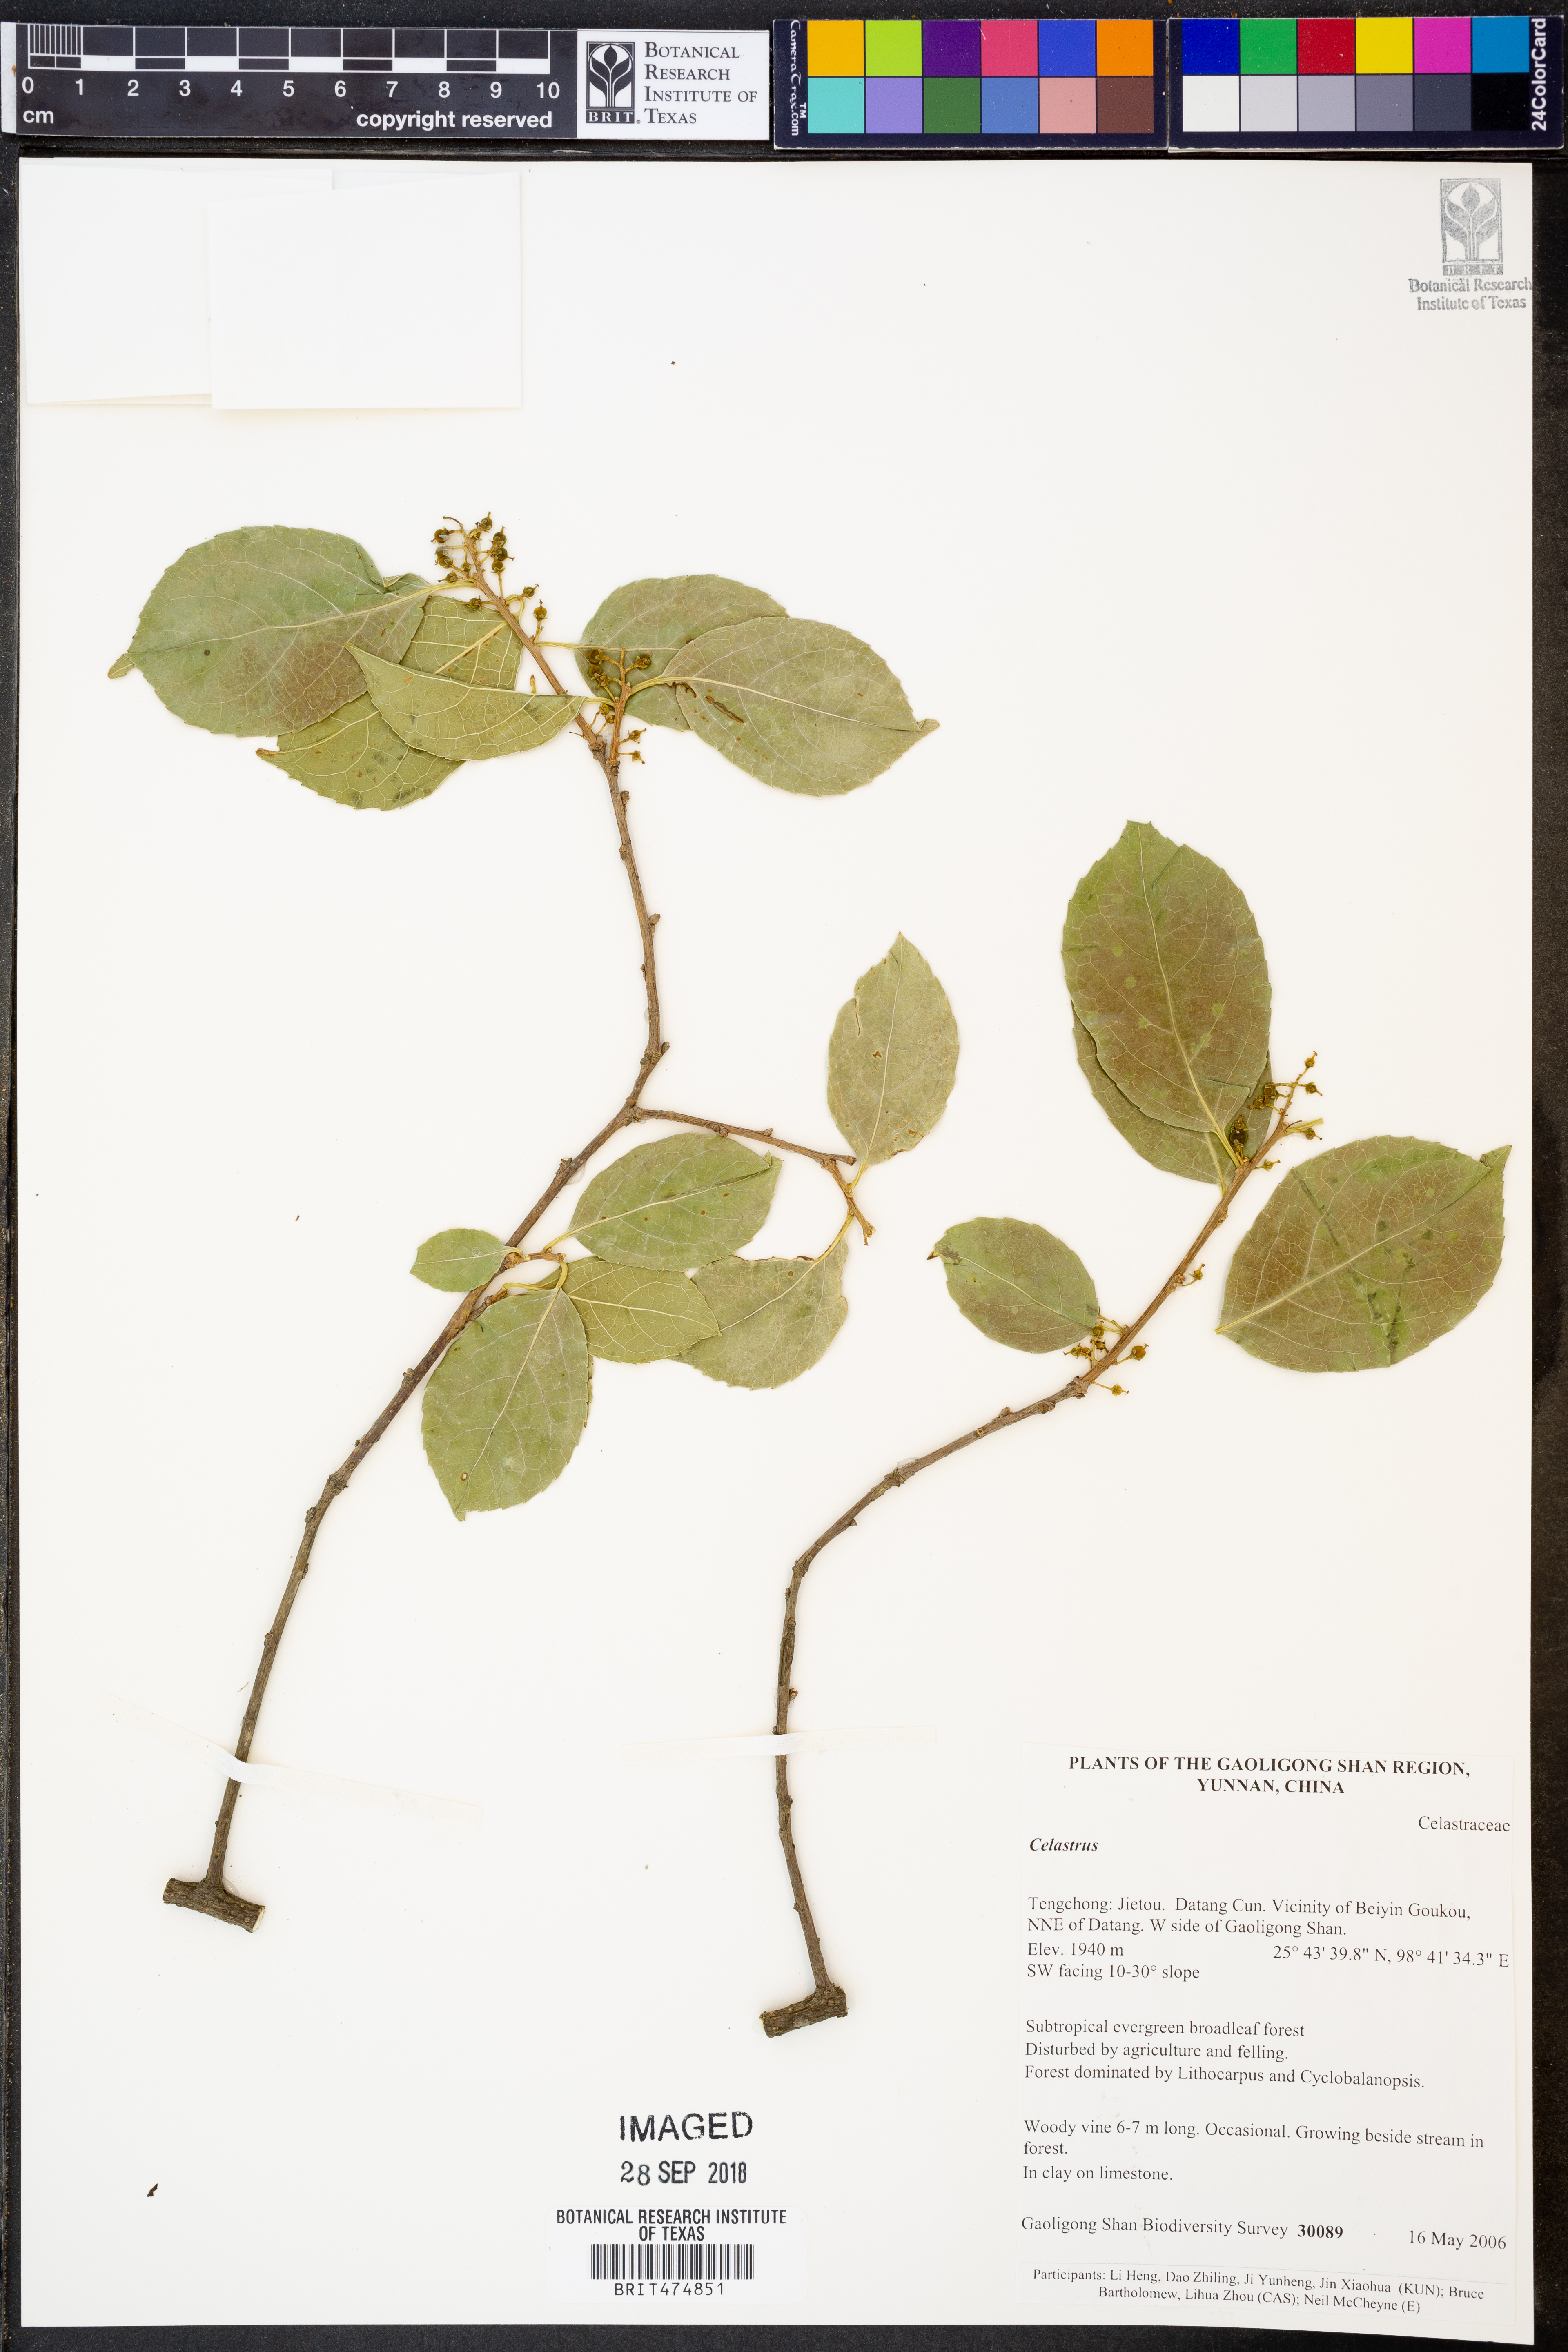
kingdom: Plantae
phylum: Tracheophyta
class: Magnoliopsida
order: Celastrales
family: Celastraceae
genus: Celastrus
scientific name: Celastrus
